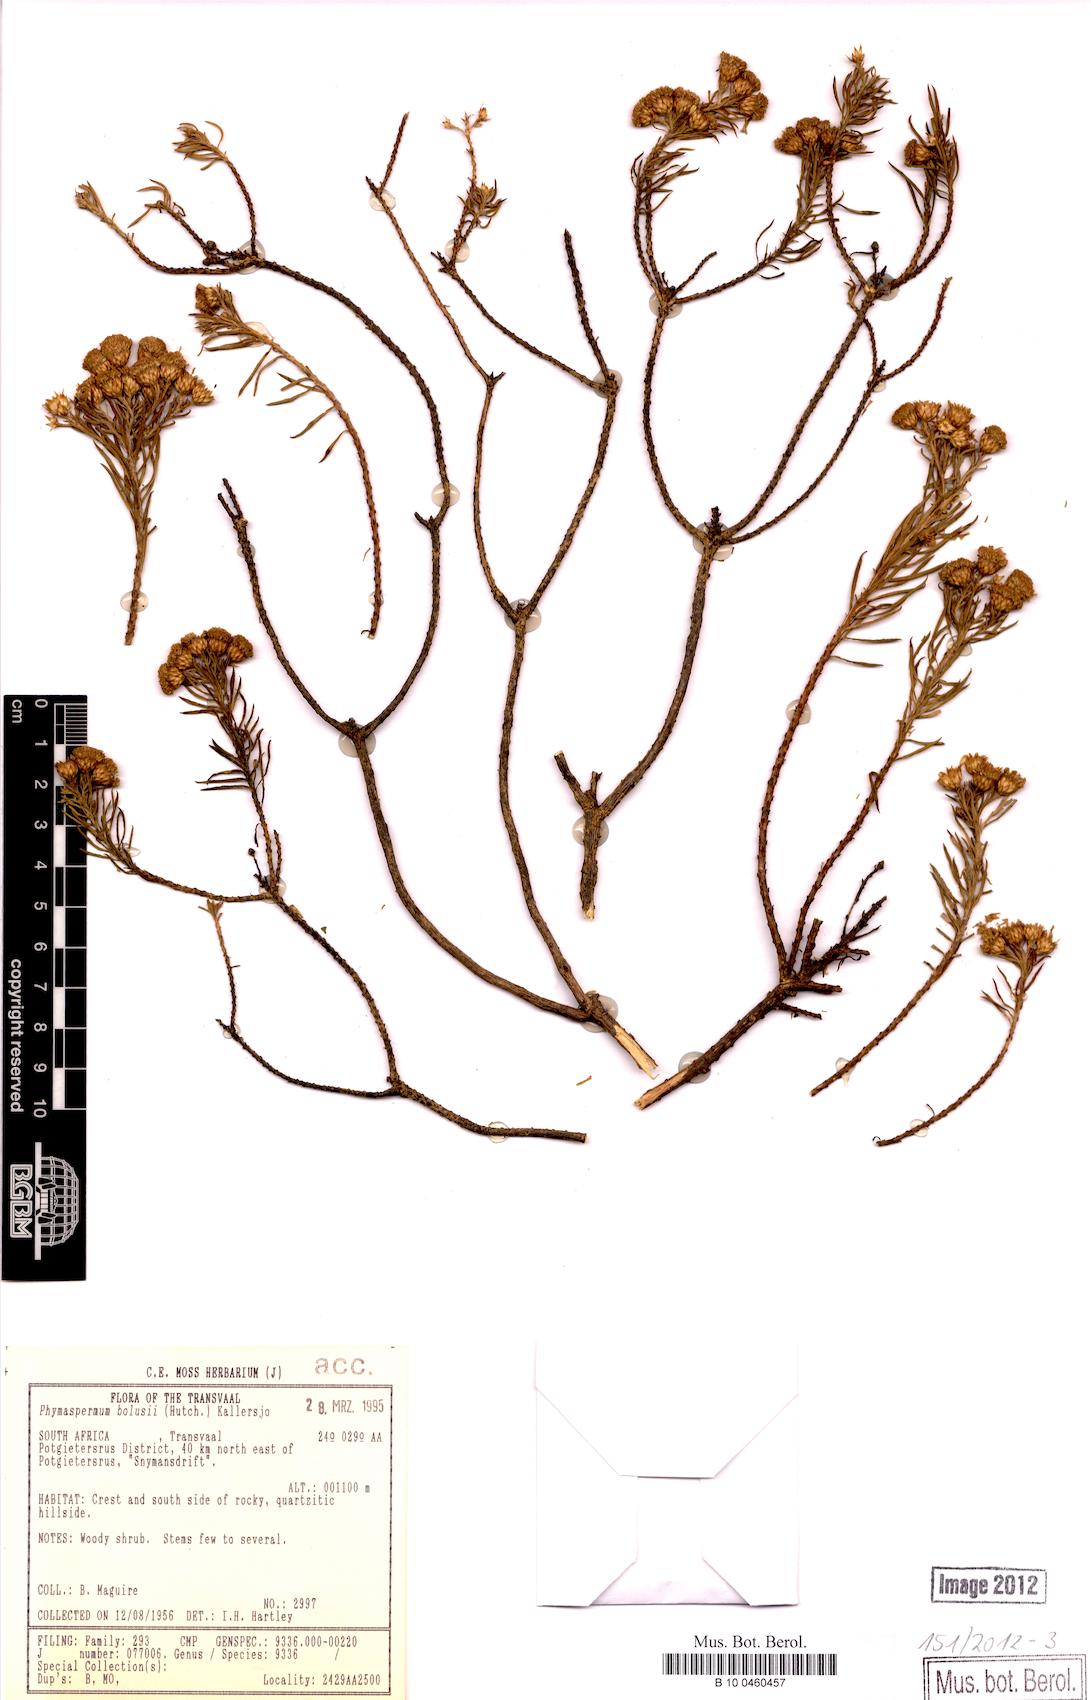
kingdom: Plantae
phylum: Tracheophyta
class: Magnoliopsida
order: Asterales
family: Asteraceae
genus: Phymaspermum
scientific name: Phymaspermum bolusii
